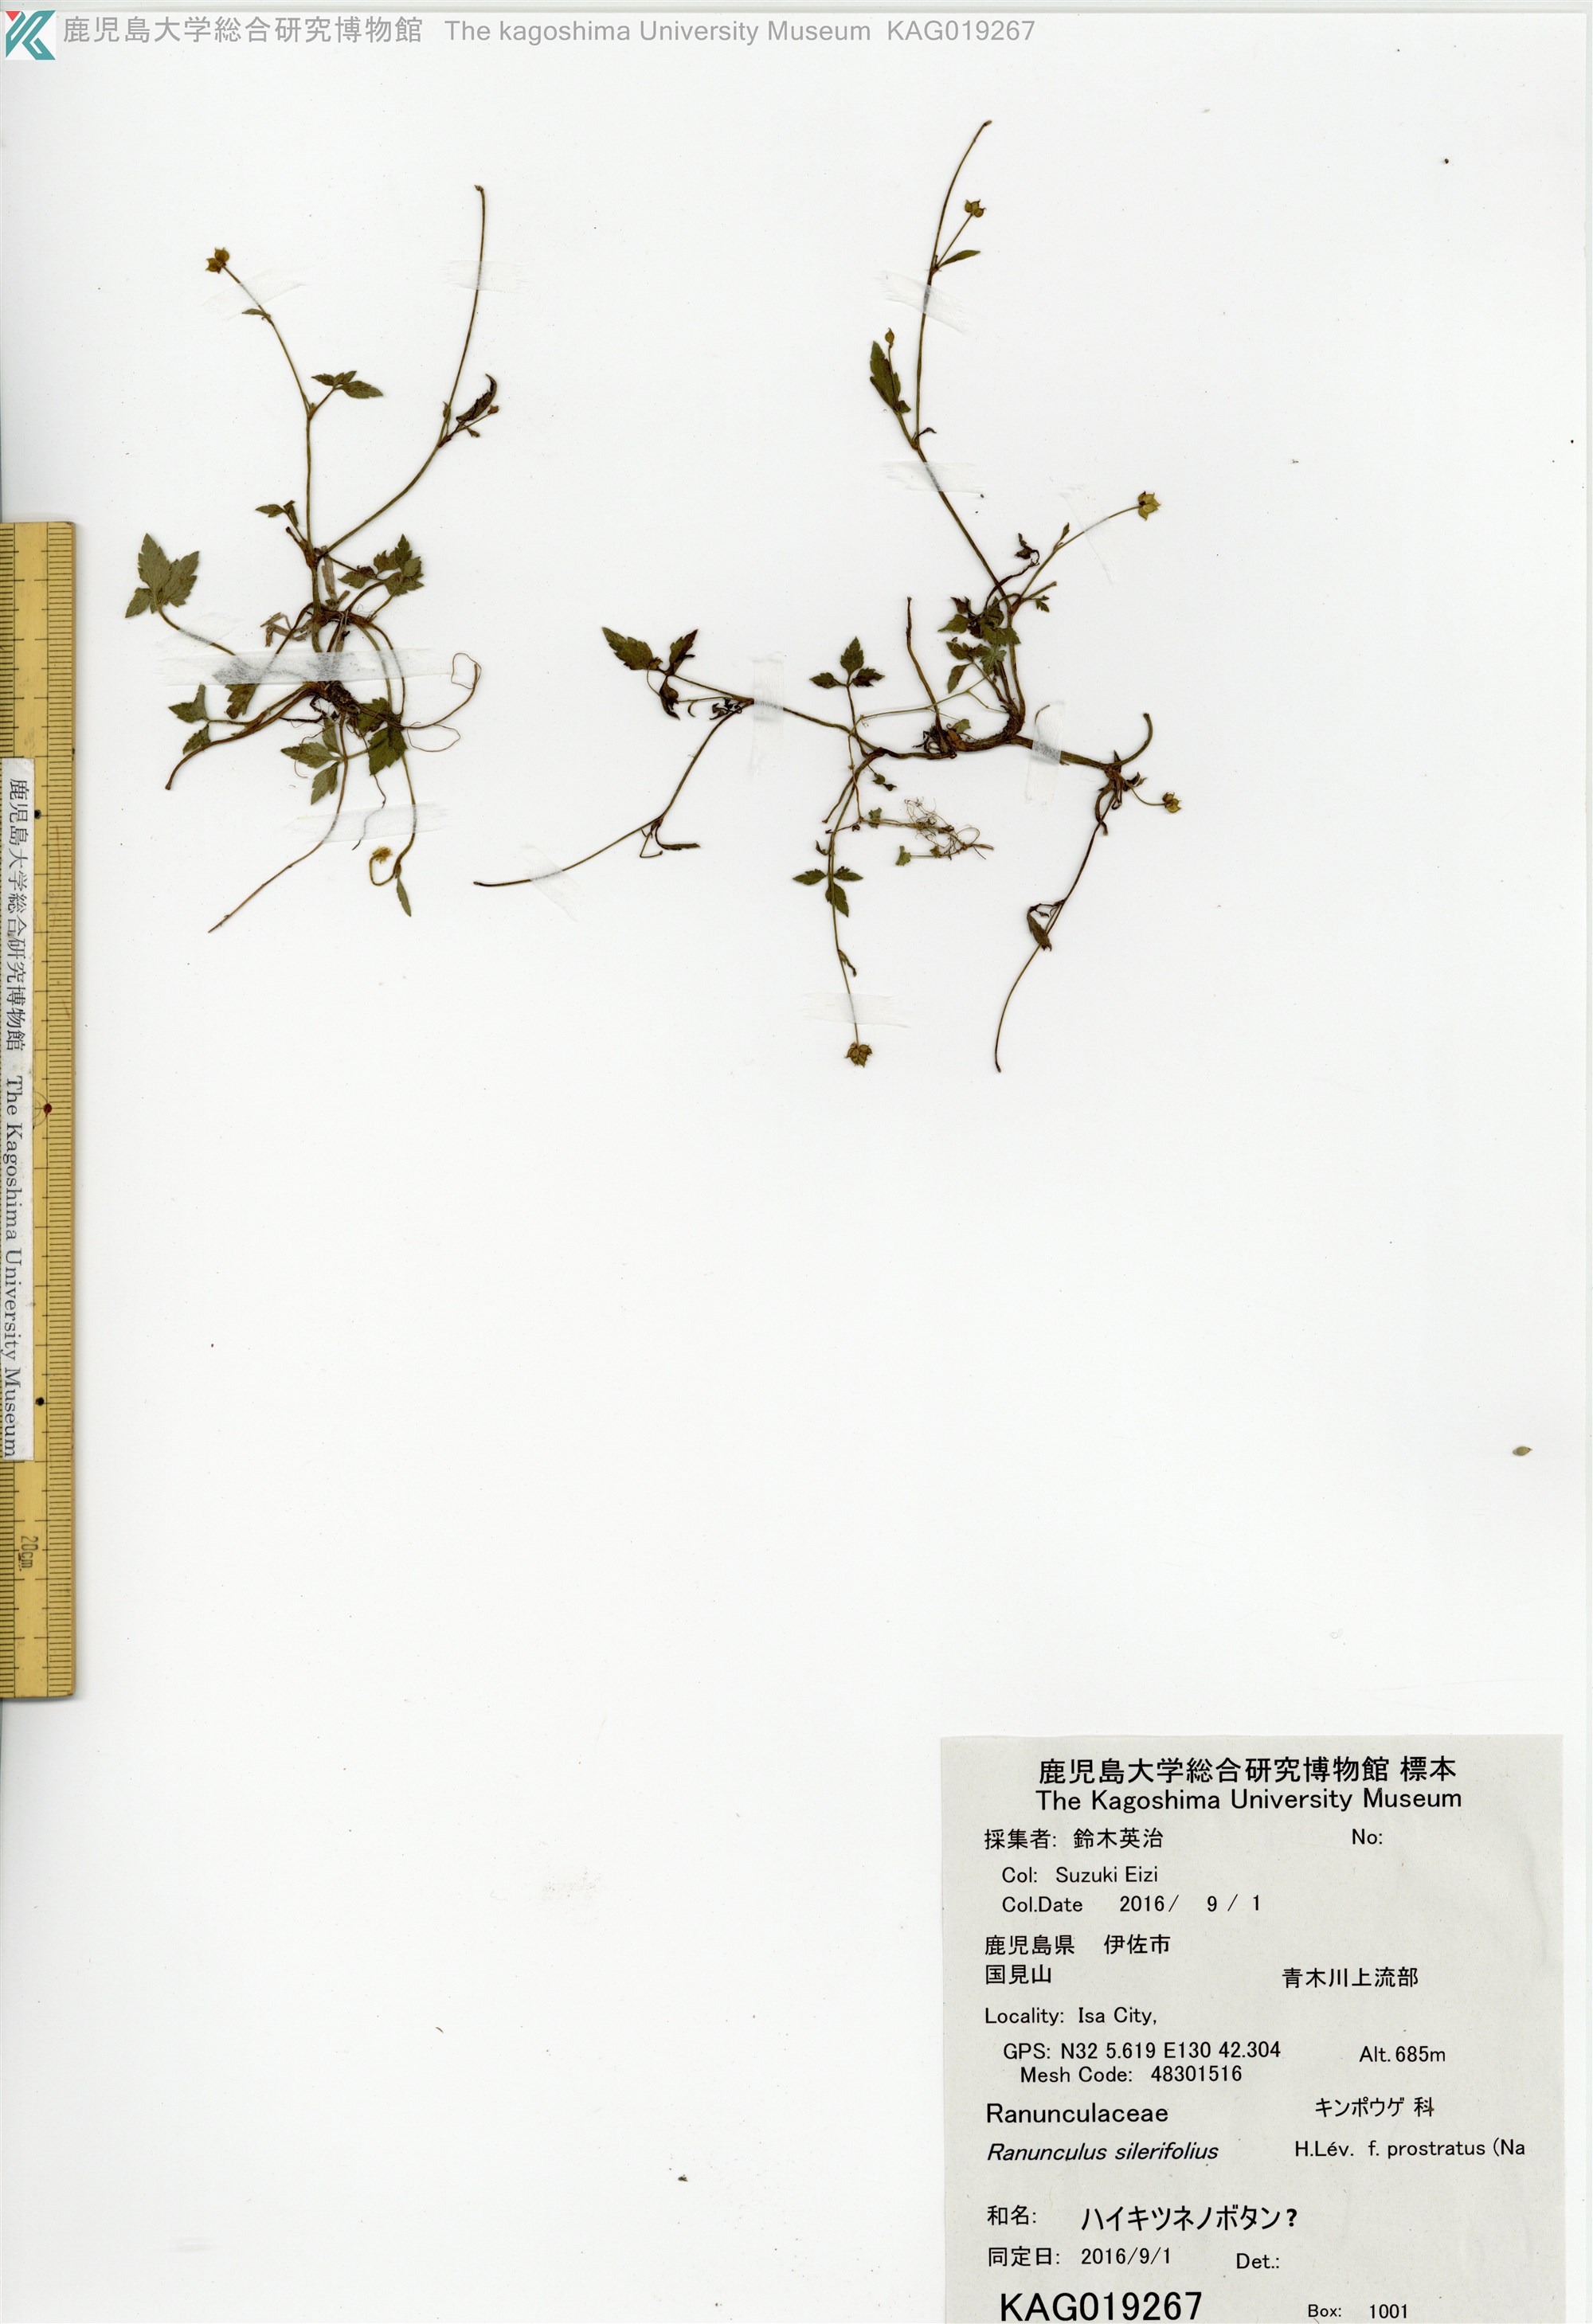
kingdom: Plantae
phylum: Tracheophyta
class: Magnoliopsida
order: Ranunculales
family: Ranunculaceae
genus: Ranunculus
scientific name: Ranunculus silerifolius
